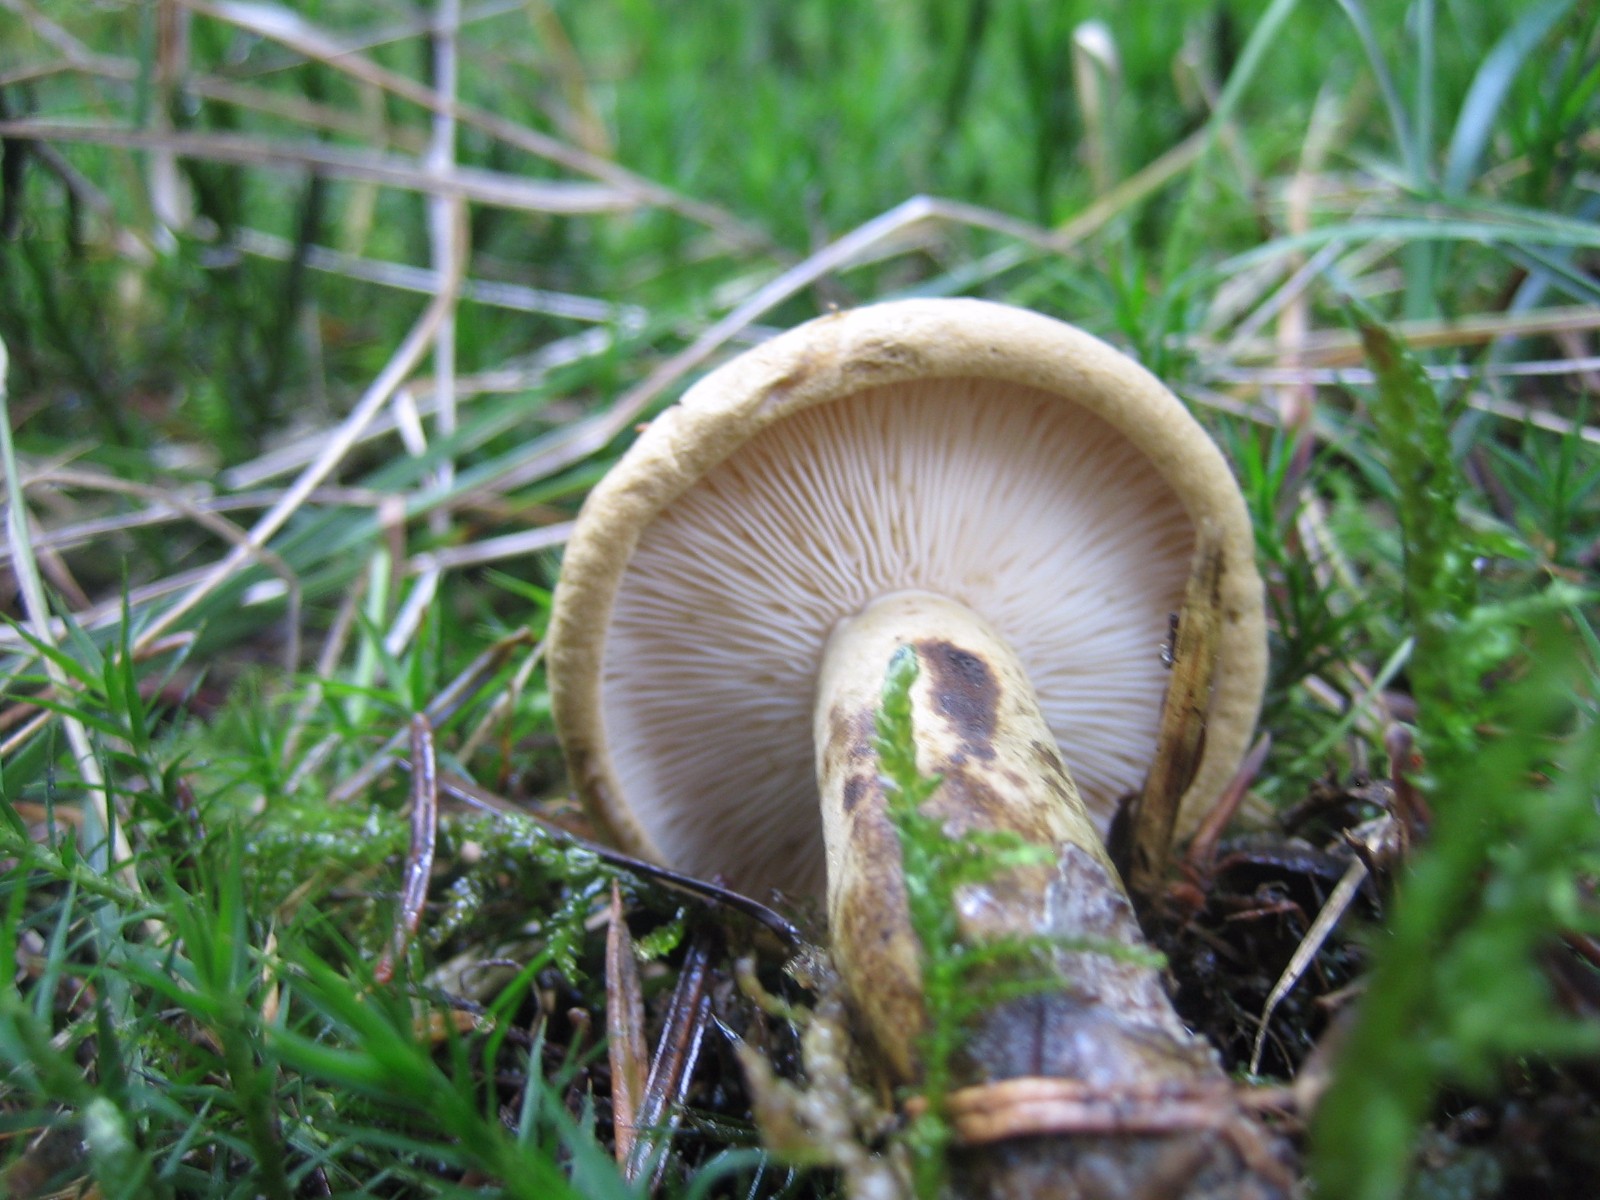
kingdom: Fungi
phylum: Basidiomycota
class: Agaricomycetes
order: Russulales
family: Russulaceae
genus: Lactarius
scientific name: Lactarius necator
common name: manddraber-mælkehat
